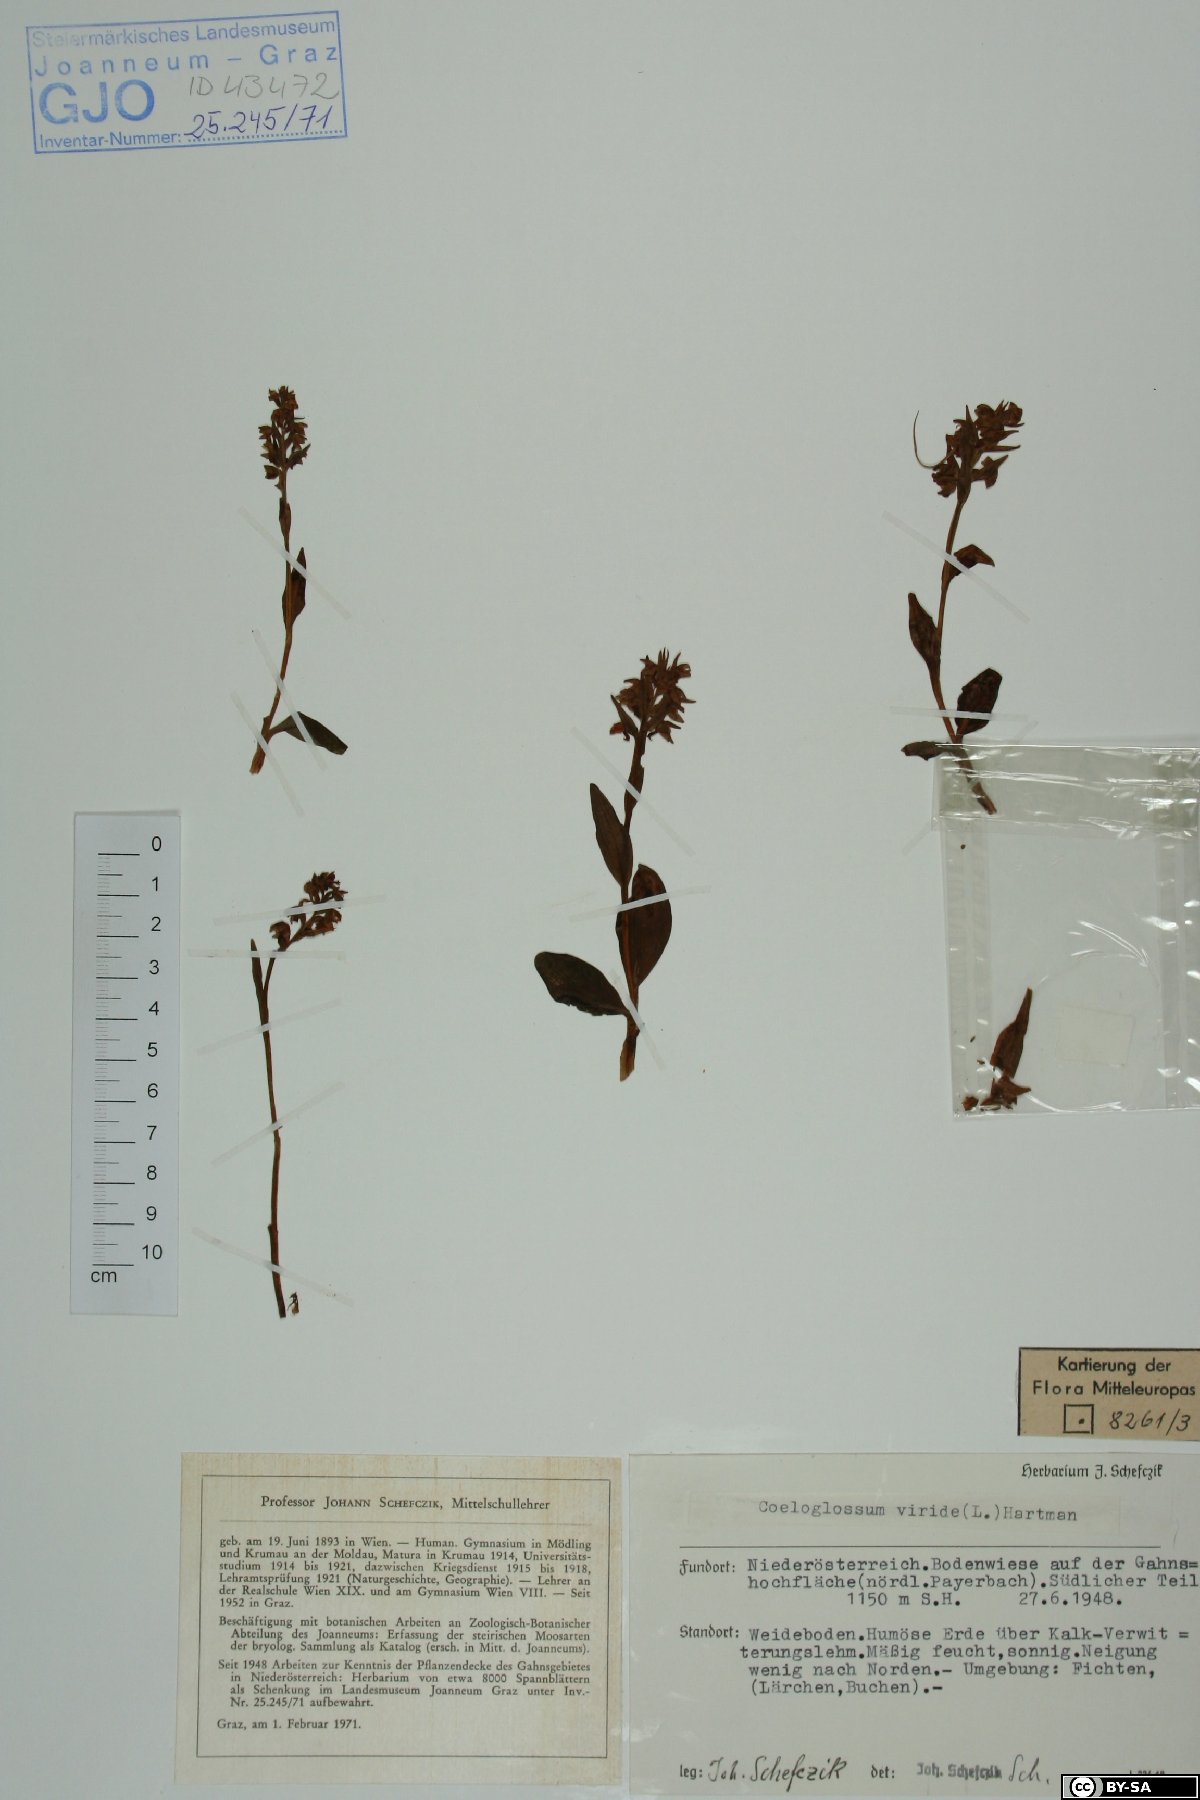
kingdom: Plantae
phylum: Tracheophyta
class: Liliopsida
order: Asparagales
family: Orchidaceae
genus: Dactylorhiza
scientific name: Dactylorhiza viridis
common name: Longbract frog orchid
